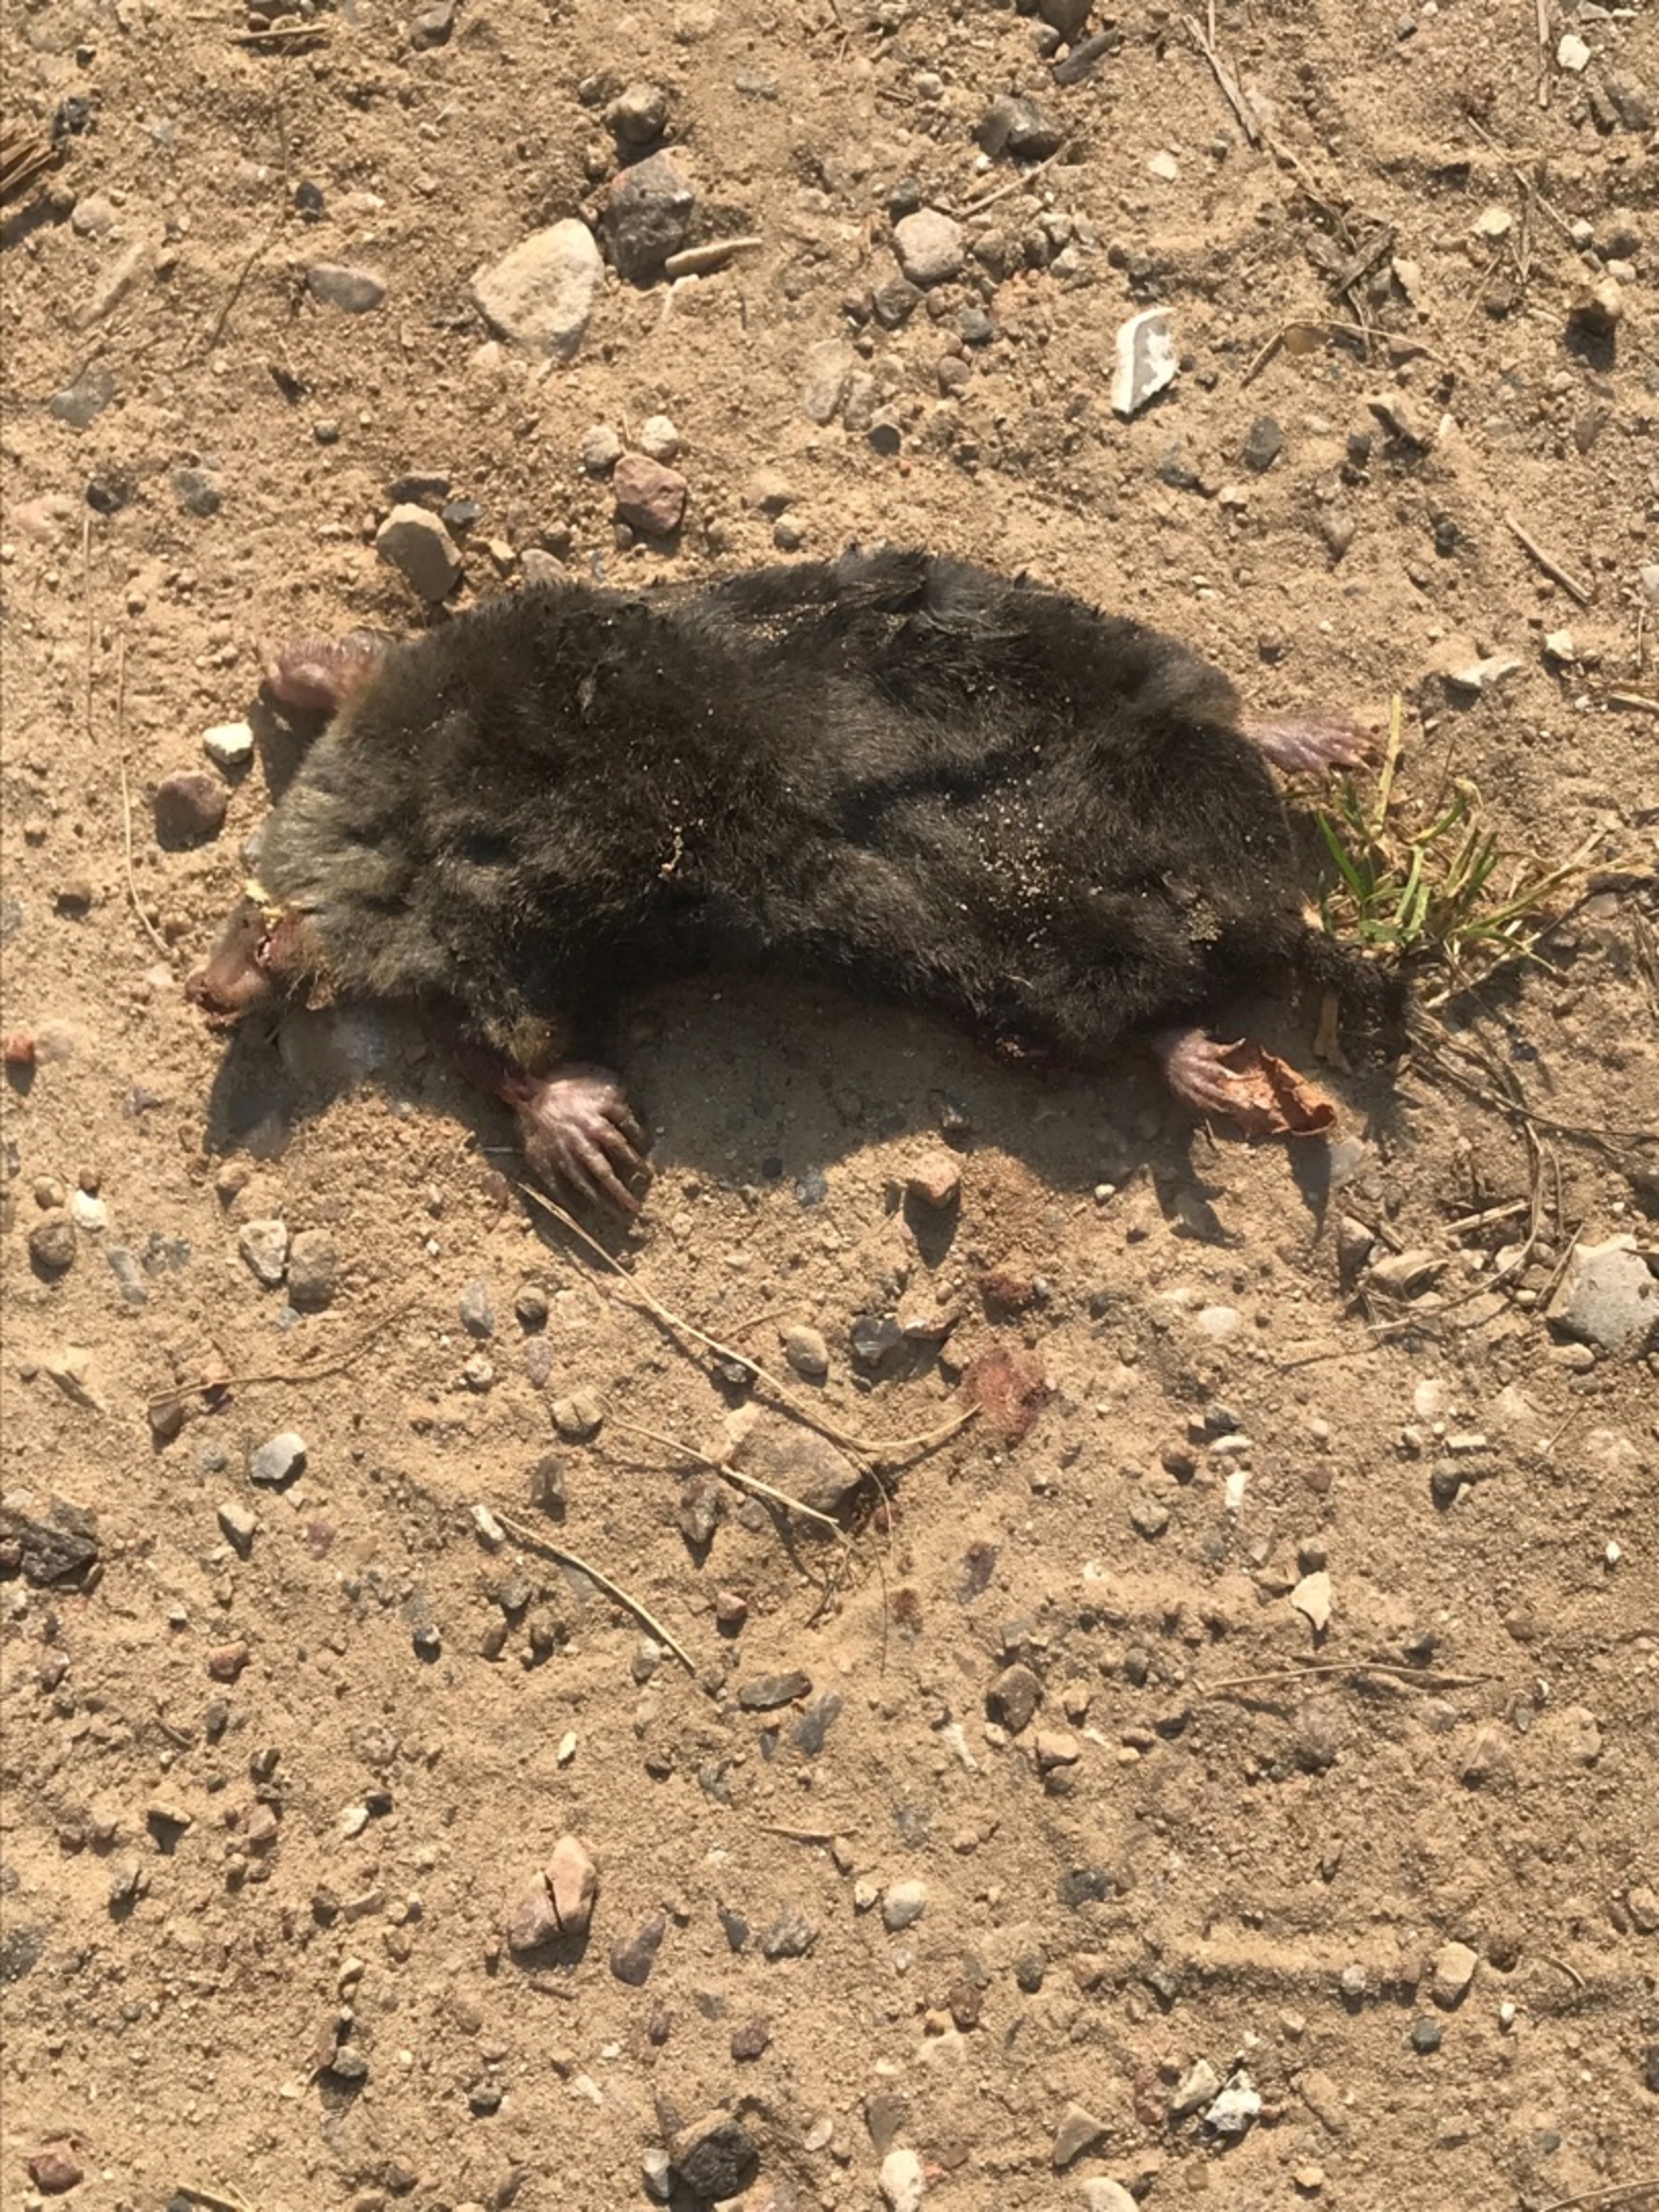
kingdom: Animalia
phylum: Chordata
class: Mammalia
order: Soricomorpha
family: Talpidae
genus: Talpa
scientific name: Talpa europaea
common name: Muldvarp
